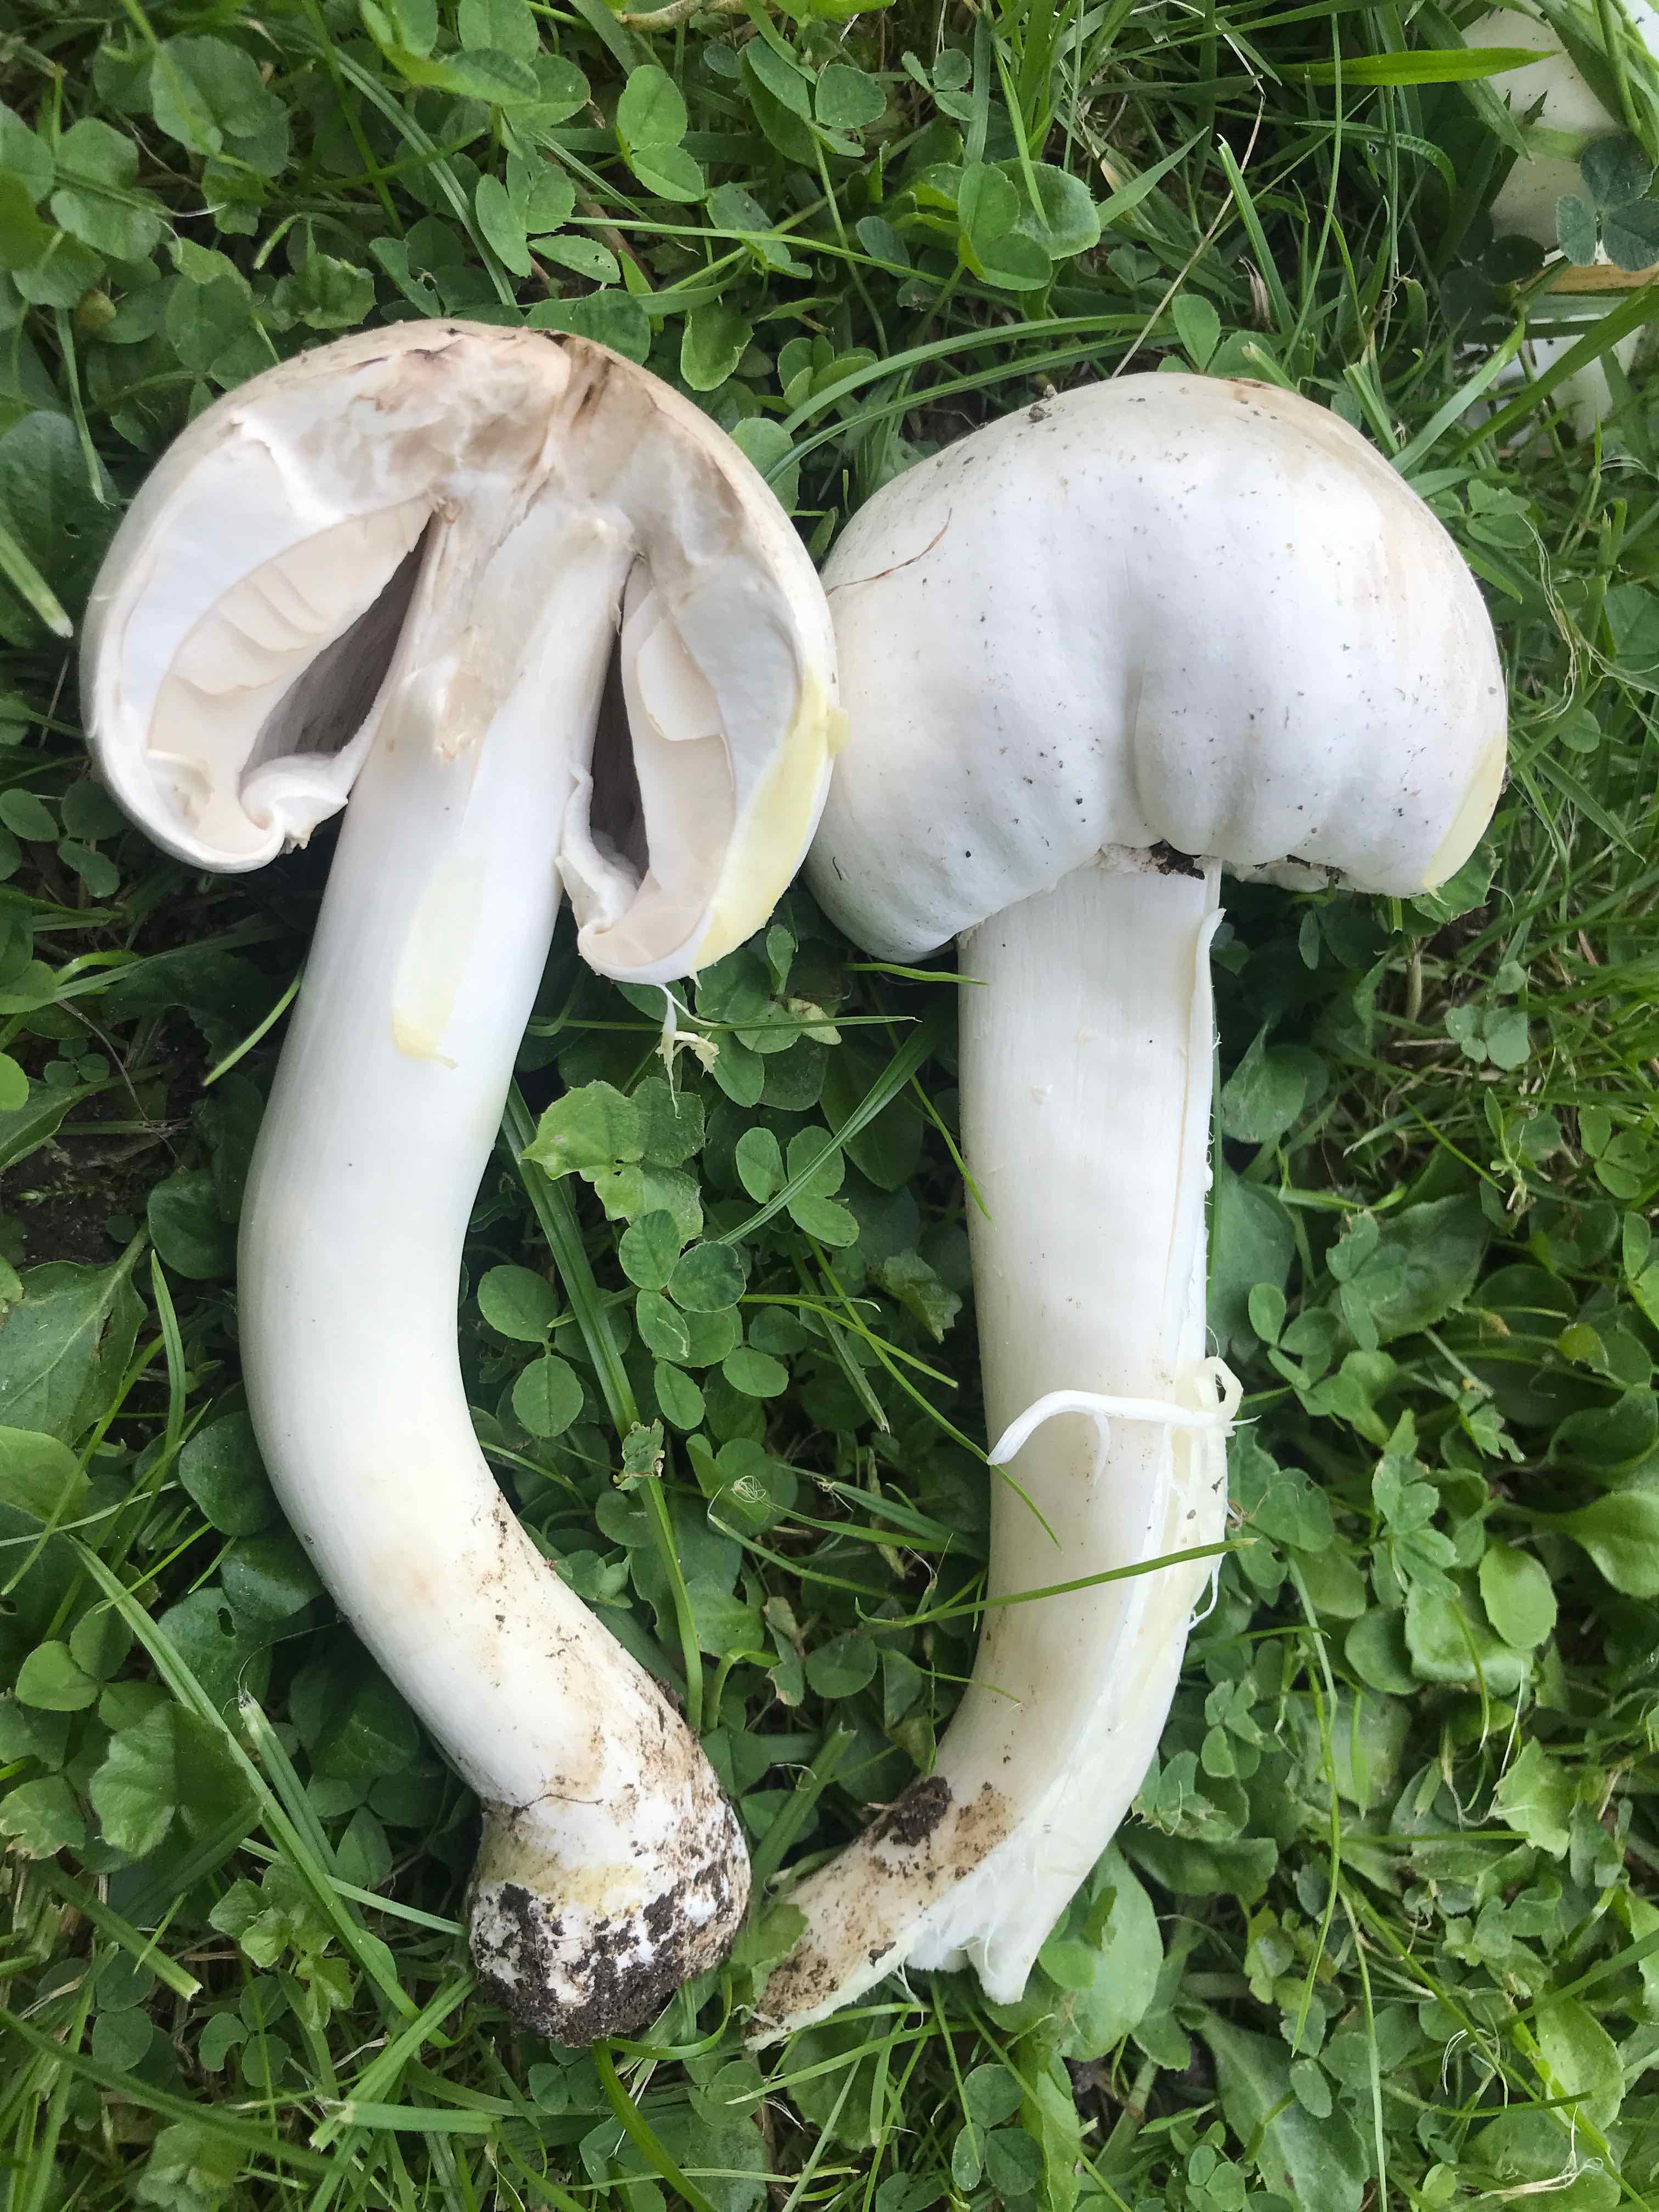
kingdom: Fungi
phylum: Basidiomycota
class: Agaricomycetes
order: Agaricales
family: Agaricaceae
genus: Agaricus
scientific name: Agaricus xanthodermus
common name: karbol-champignon
